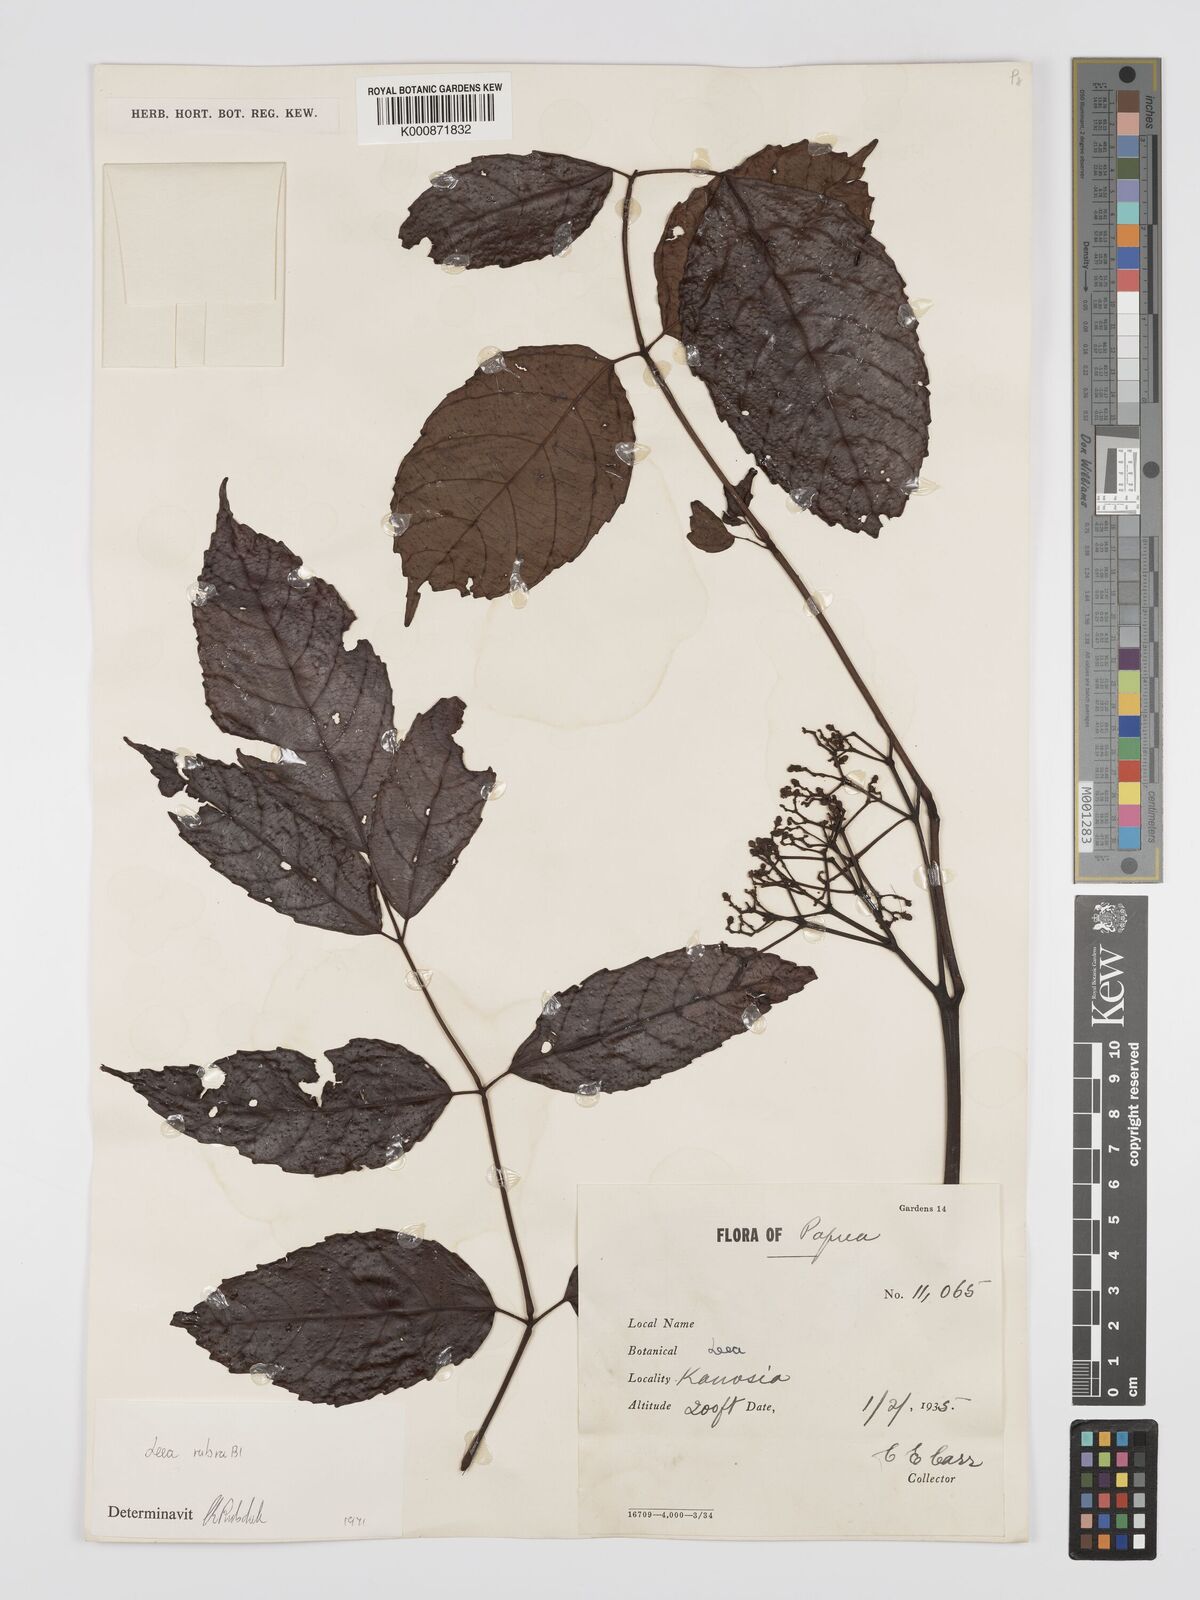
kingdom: Plantae
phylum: Tracheophyta
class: Magnoliopsida
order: Vitales
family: Vitaceae
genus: Leea
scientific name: Leea
